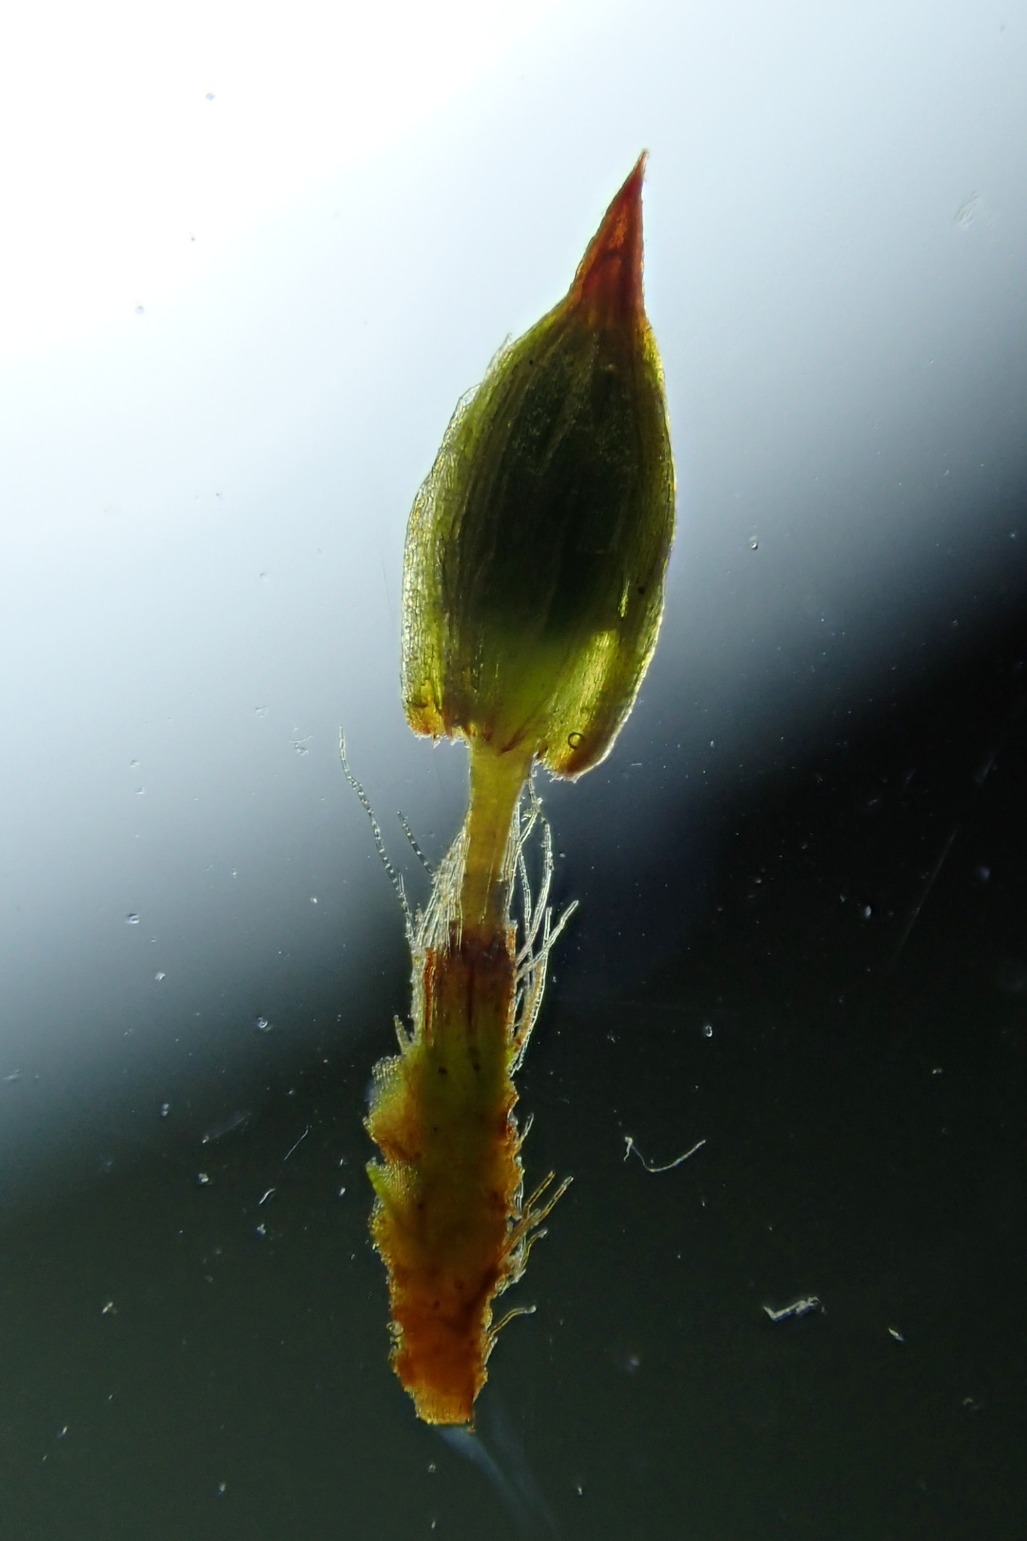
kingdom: Plantae
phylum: Bryophyta
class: Bryopsida
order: Orthotrichales
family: Orthotrichaceae
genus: Orthotrichum
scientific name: Orthotrichum stramineum
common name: Strågul furehætte
